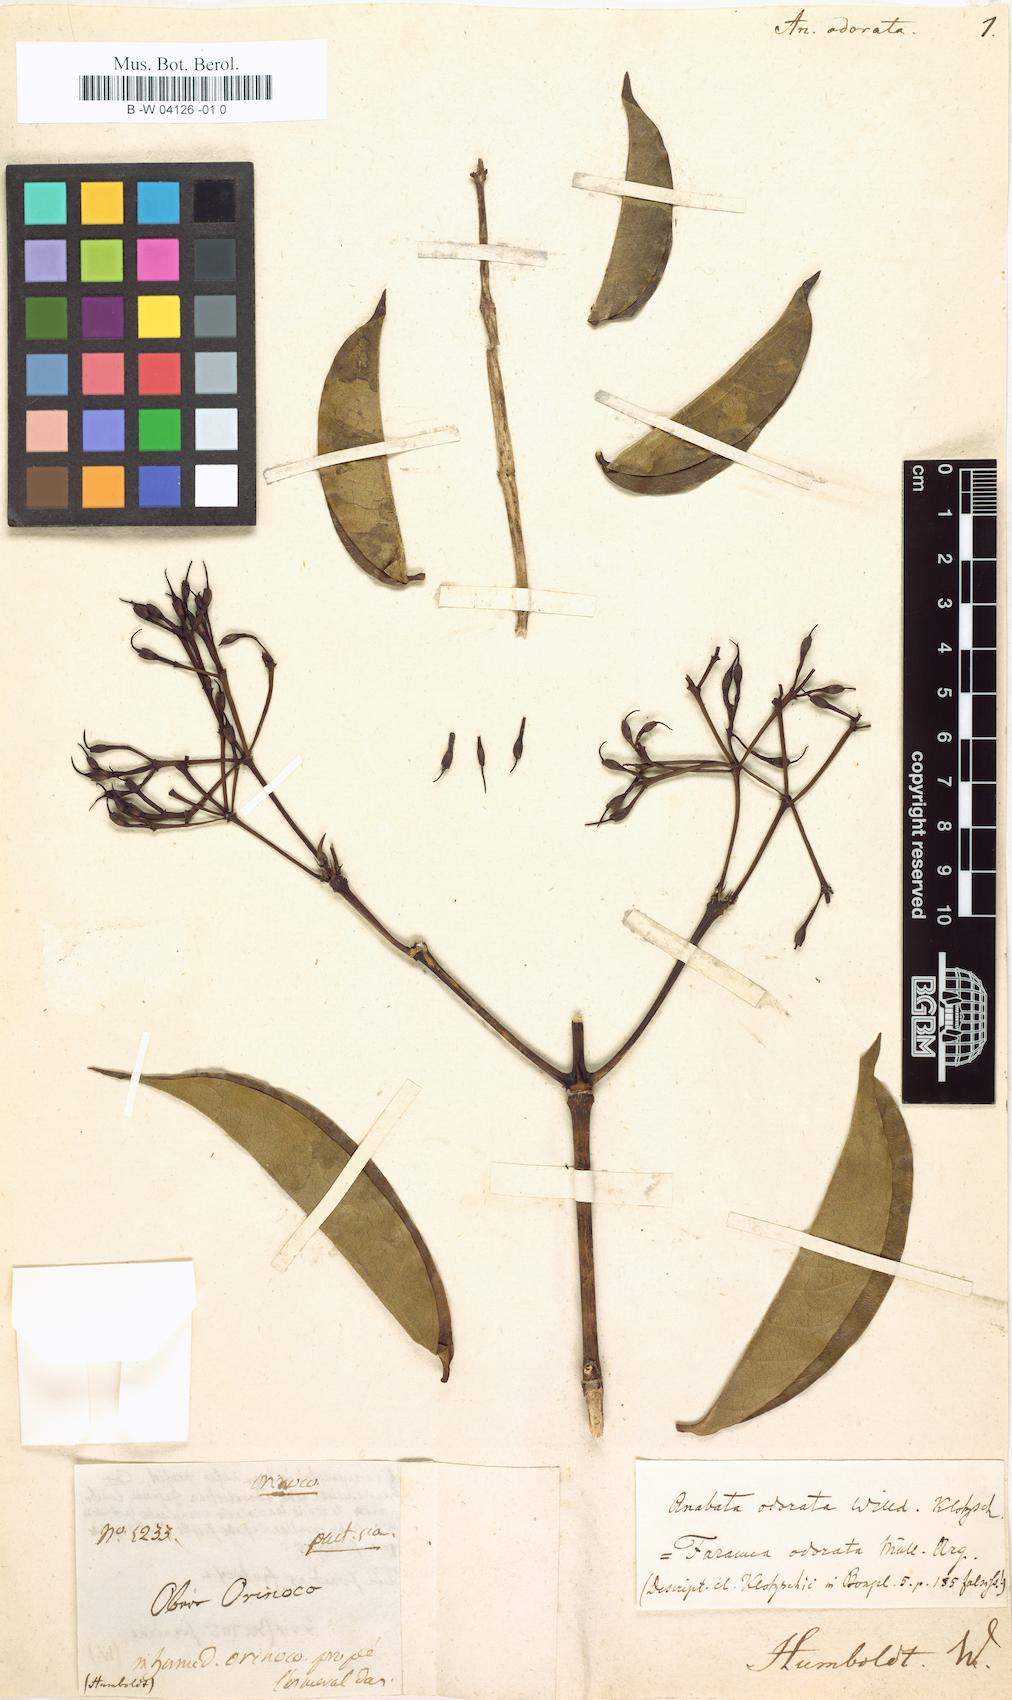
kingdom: Plantae
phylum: Tracheophyta
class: Magnoliopsida
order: Gentianales
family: Apocynaceae
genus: Forsteronia
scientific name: Forsteronia Anabata odorata
